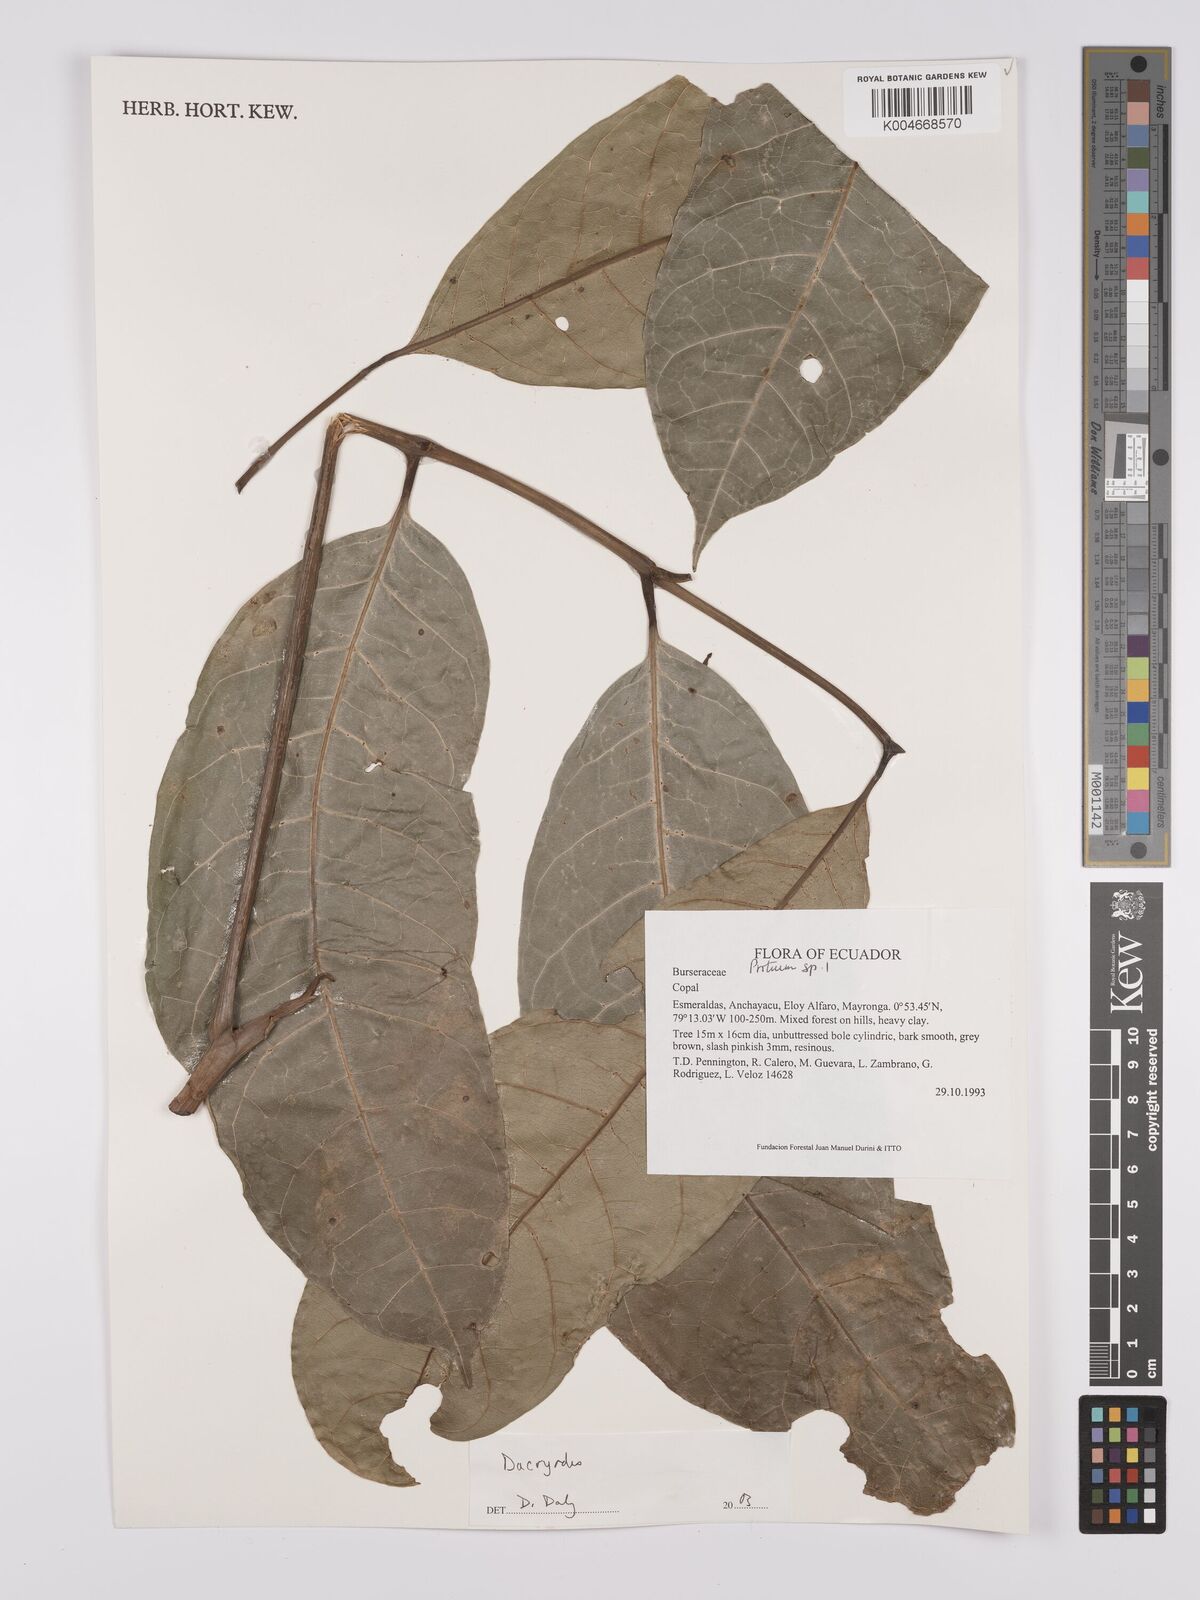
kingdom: Plantae
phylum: Tracheophyta
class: Magnoliopsida
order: Sapindales
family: Burseraceae
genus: Dacryodes
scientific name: Dacryodes
